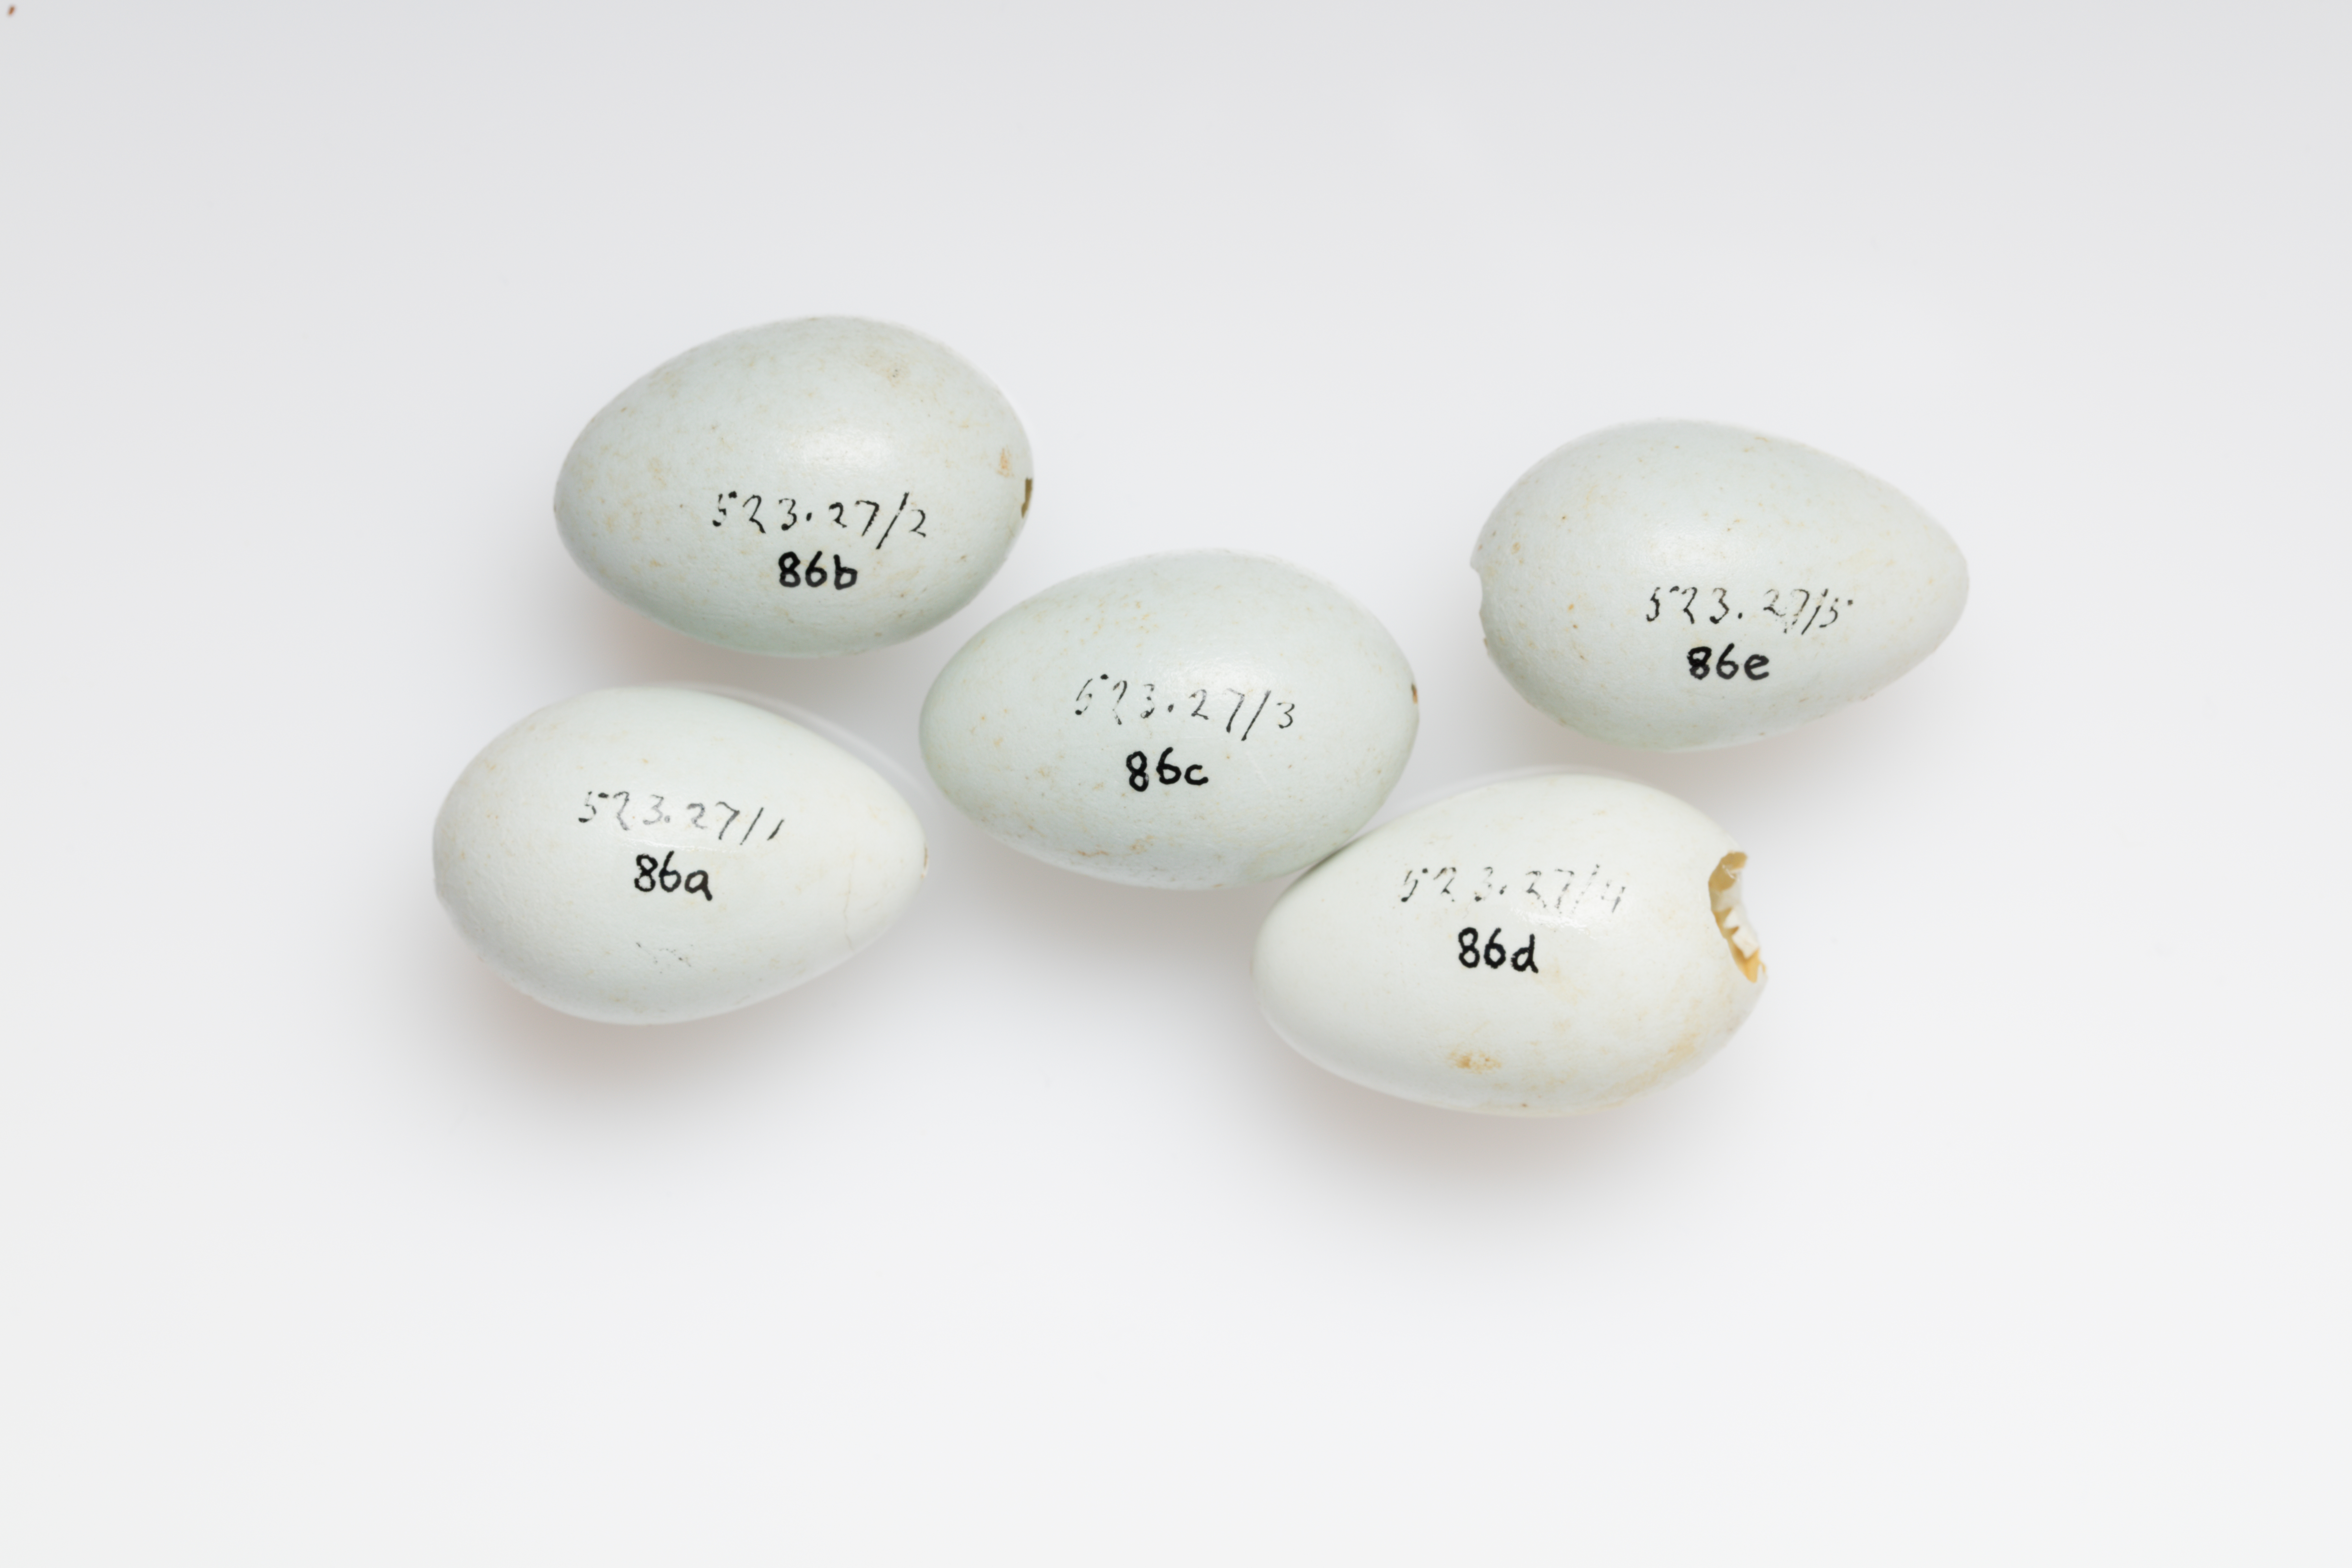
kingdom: Animalia
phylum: Chordata
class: Aves
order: Passeriformes
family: Sturnidae
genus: Sturnus
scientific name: Sturnus vulgaris
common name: Common starling
